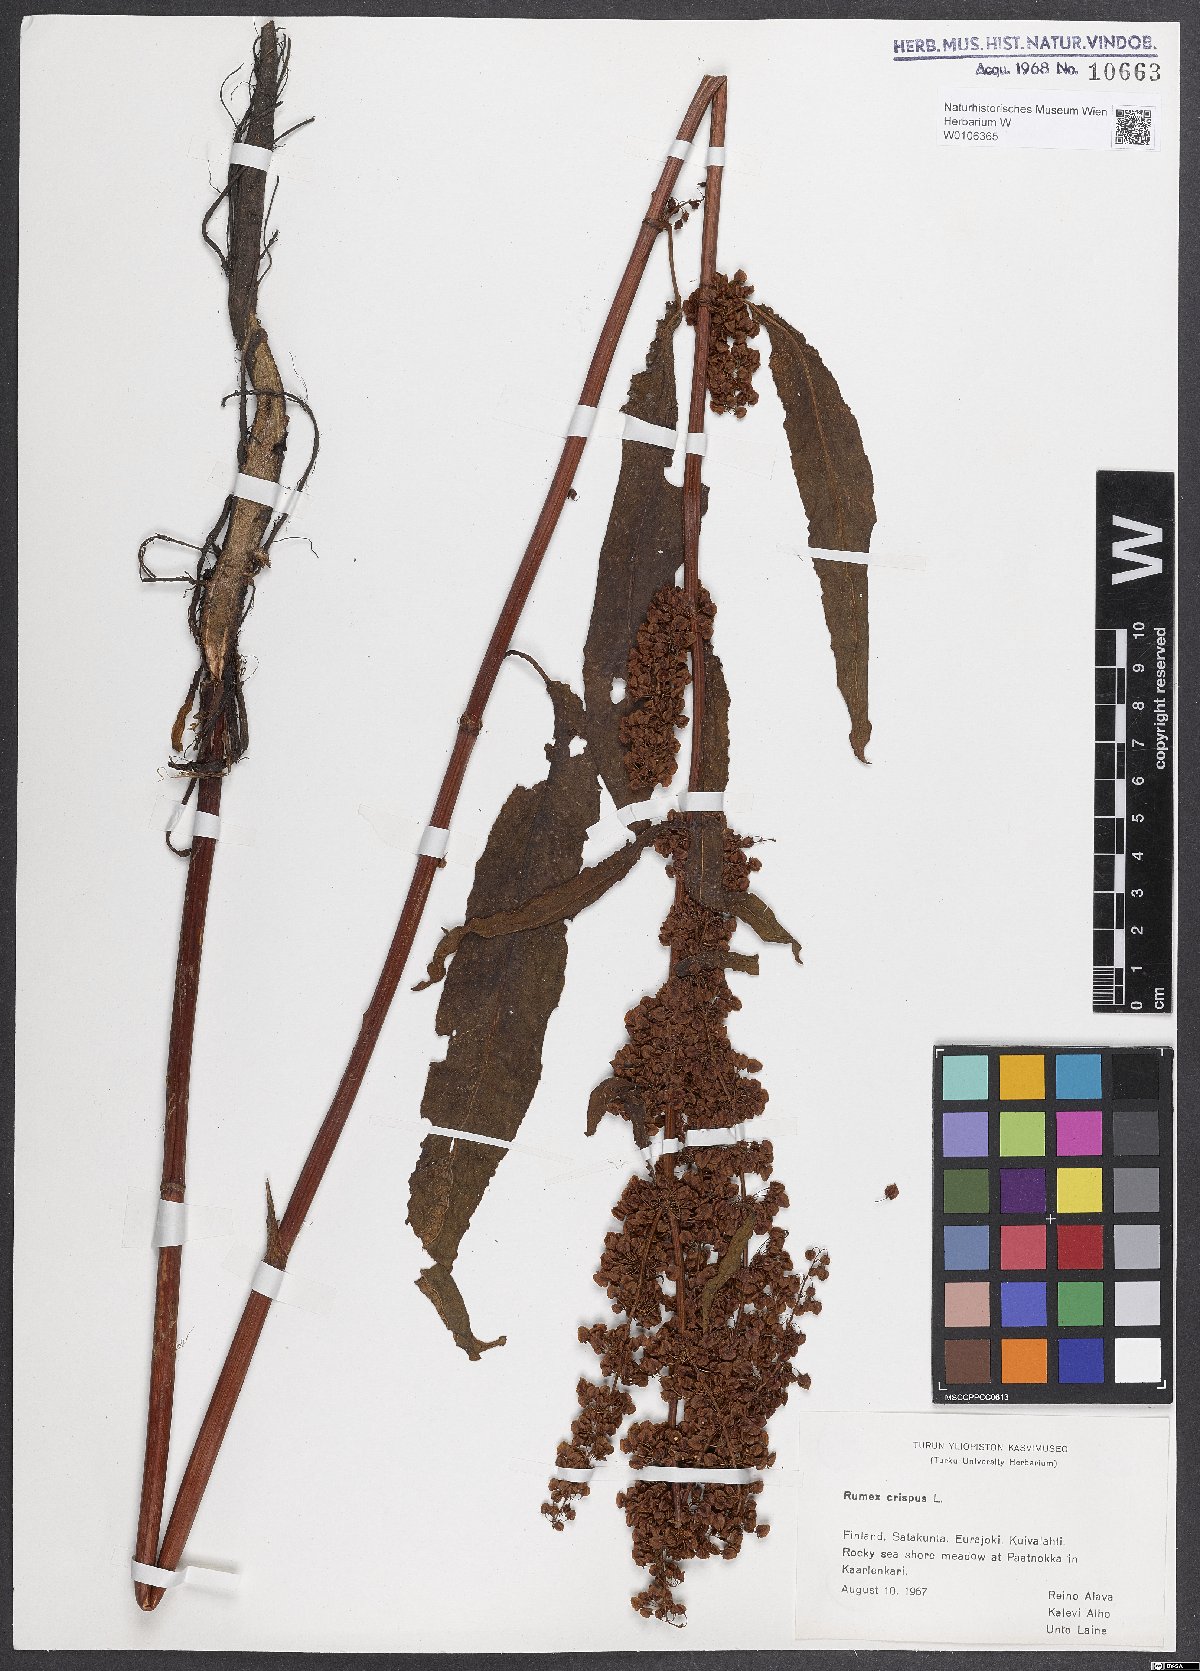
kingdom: Plantae
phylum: Tracheophyta
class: Magnoliopsida
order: Caryophyllales
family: Polygonaceae
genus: Rumex
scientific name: Rumex crispus
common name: Curled dock
